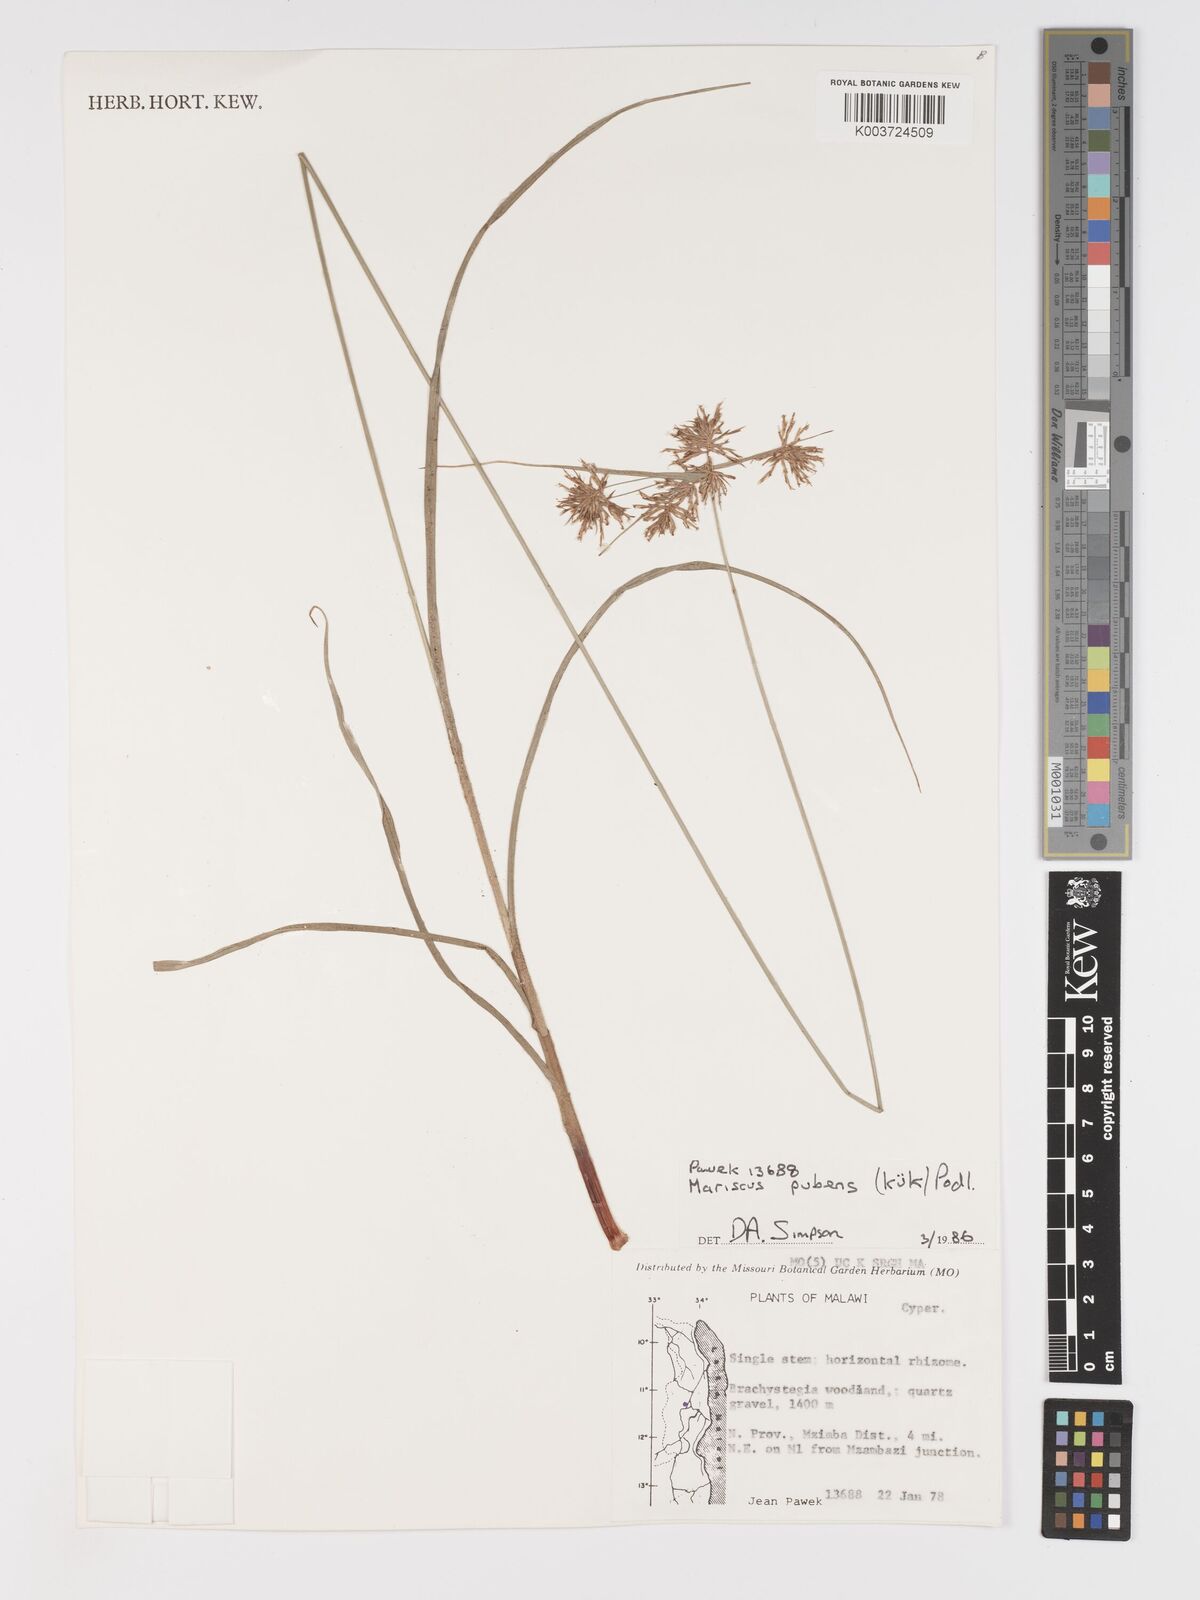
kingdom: Plantae
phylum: Tracheophyta
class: Liliopsida
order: Poales
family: Cyperaceae
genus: Cyperus
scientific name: Cyperus pubens
